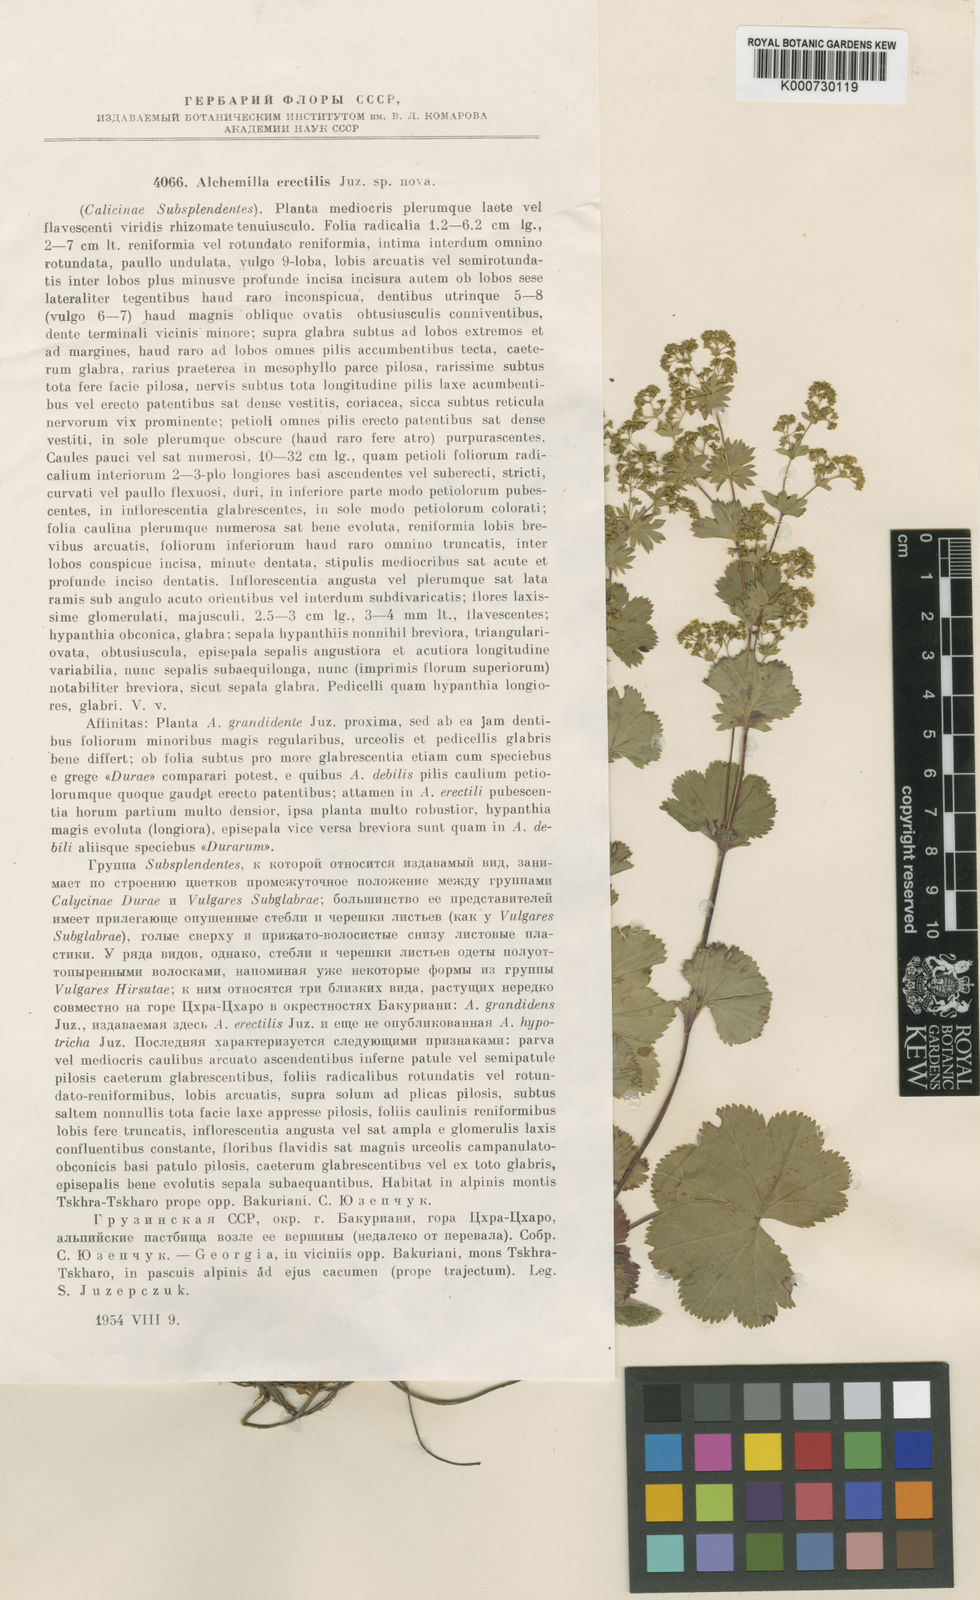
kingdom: Plantae
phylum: Tracheophyta
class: Magnoliopsida
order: Rosales
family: Rosaceae
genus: Alchemilla
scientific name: Alchemilla erectilis
